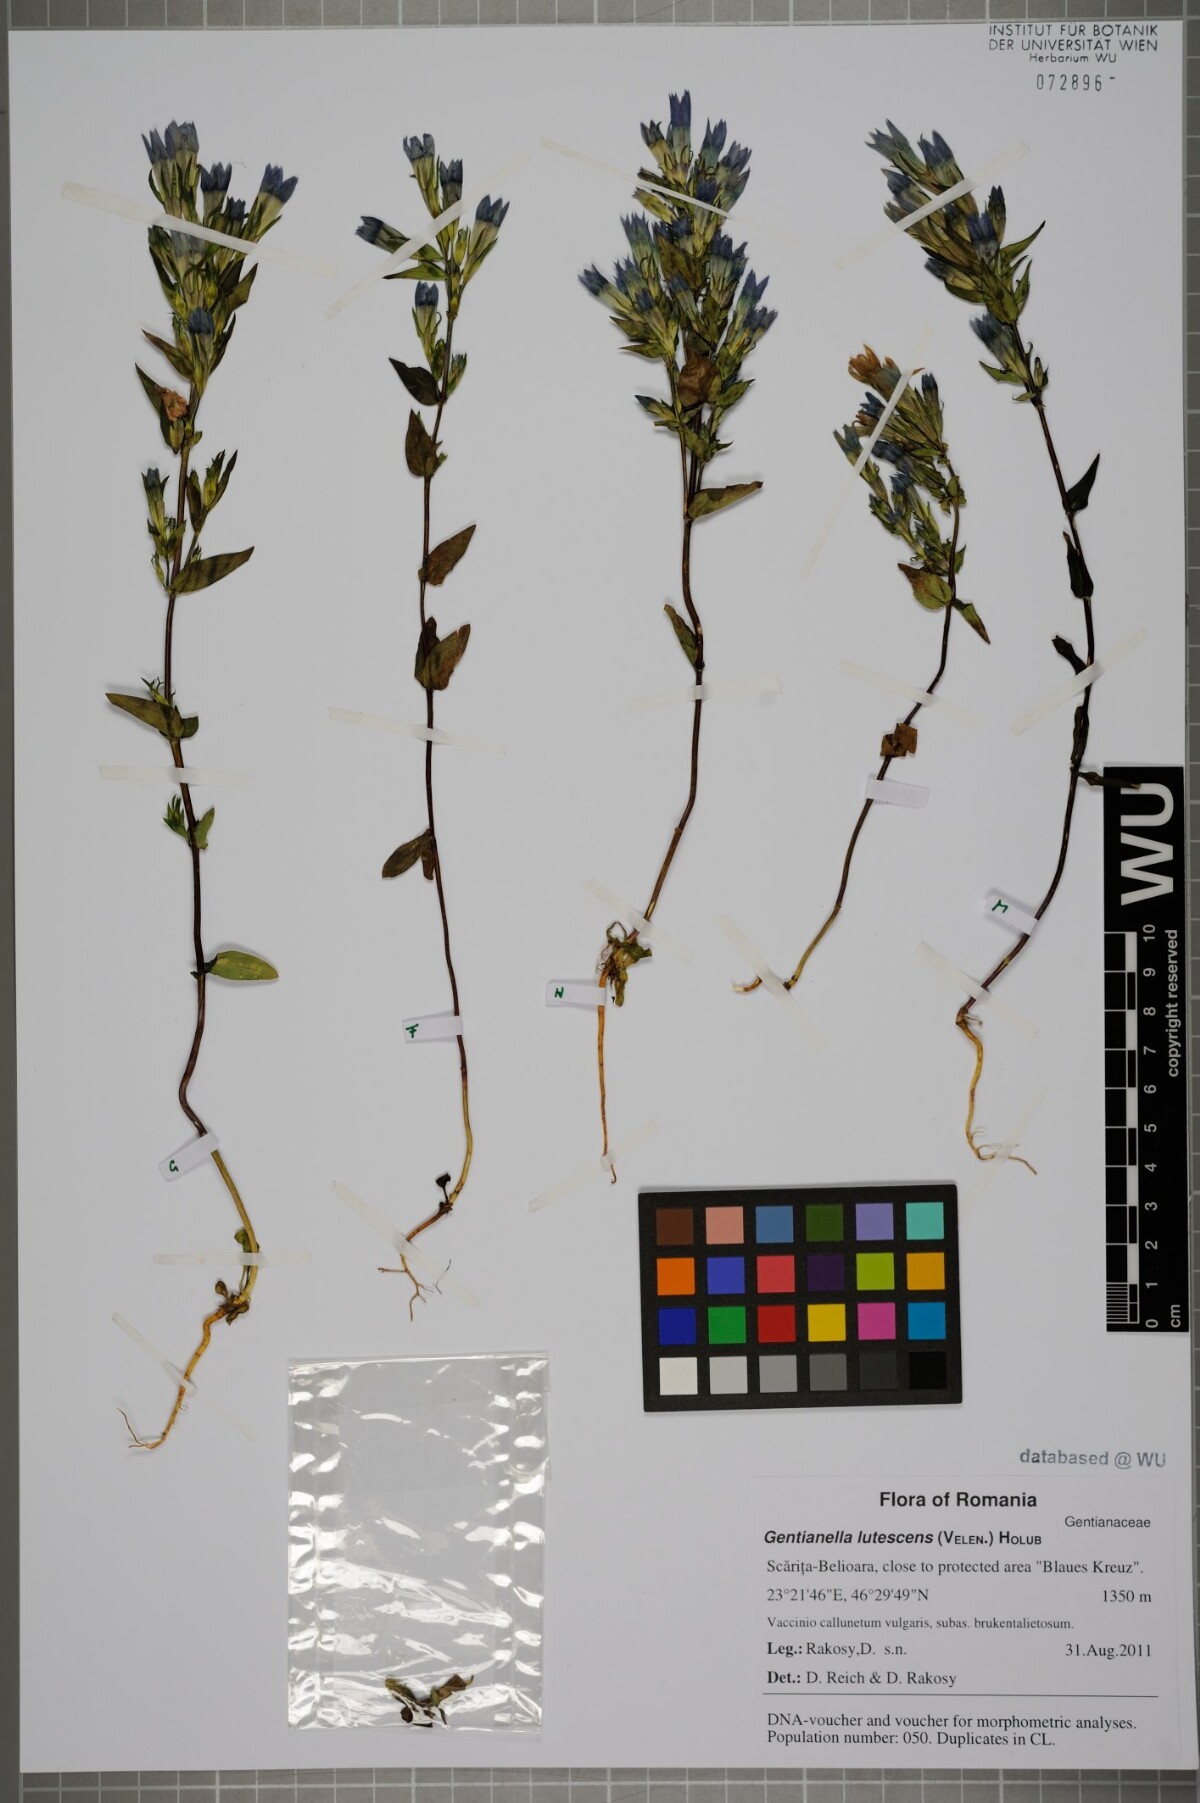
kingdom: Plantae
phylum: Tracheophyta
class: Magnoliopsida
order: Gentianales
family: Gentianaceae
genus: Gentianella
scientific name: Gentianella praecox
